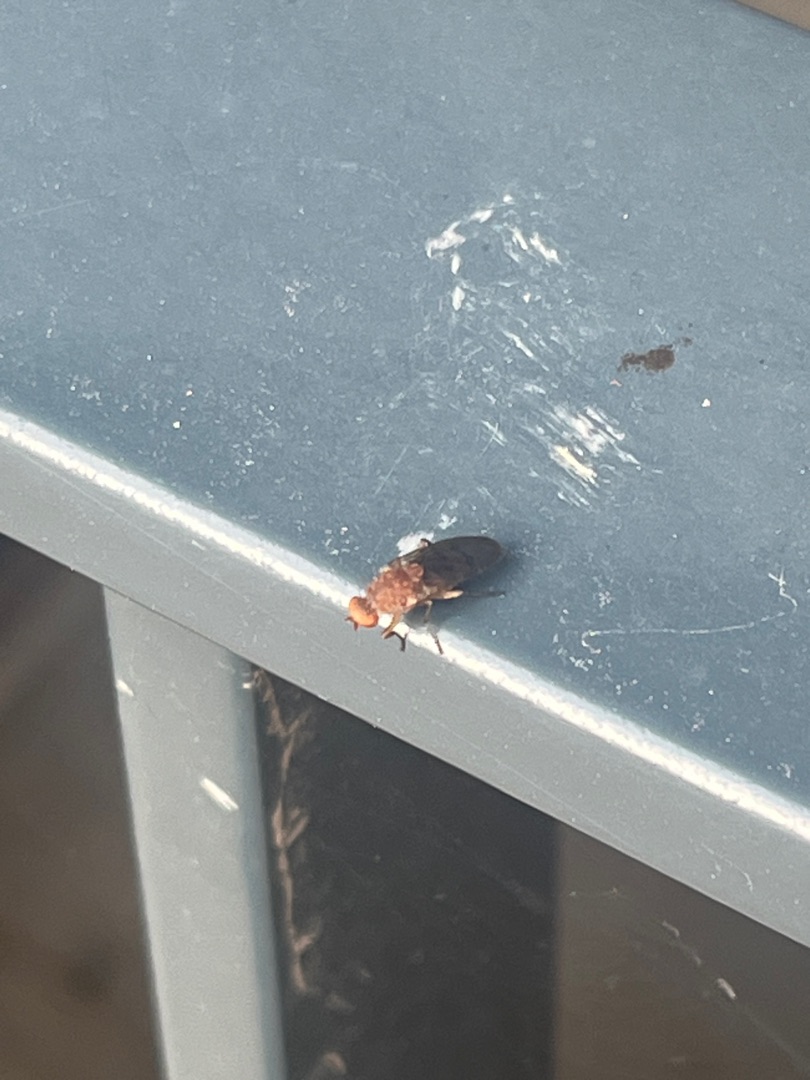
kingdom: Animalia
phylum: Arthropoda
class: Insecta
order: Diptera
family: Heleomyzidae
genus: Suillia
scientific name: Suillia
